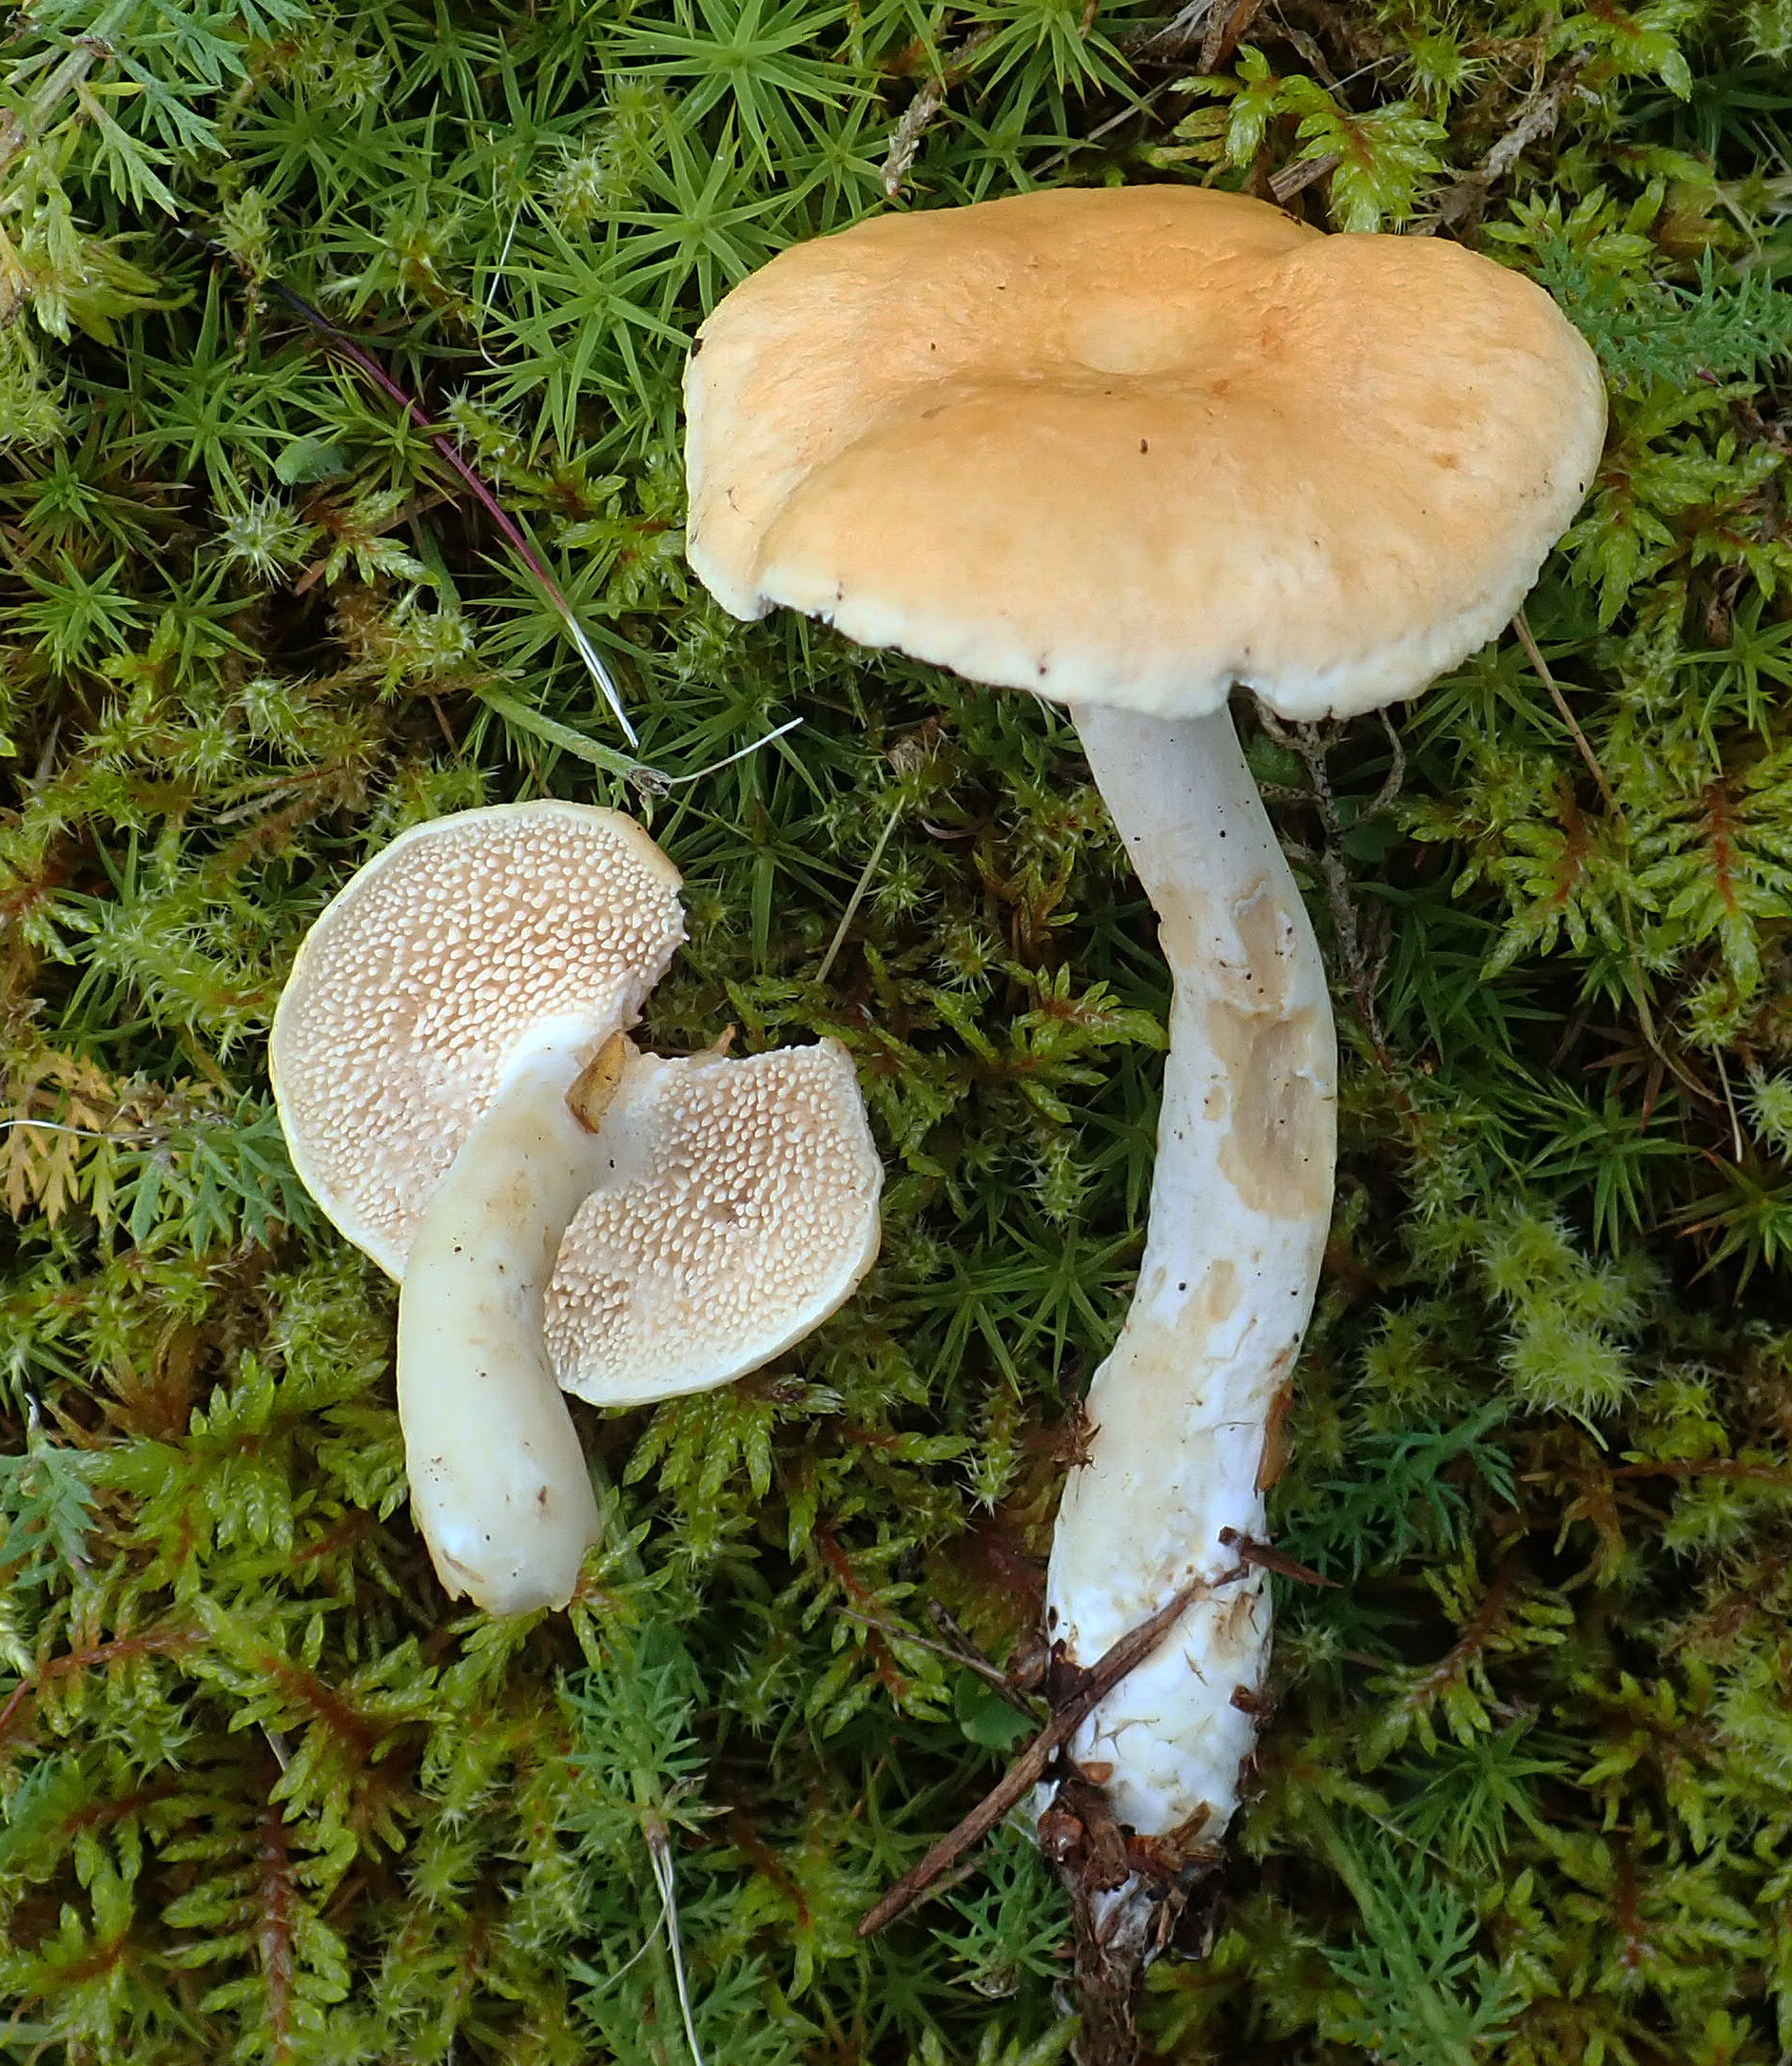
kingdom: Fungi
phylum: Basidiomycota
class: Agaricomycetes
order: Cantharellales
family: Hydnaceae
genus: Hydnum
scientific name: Hydnum
